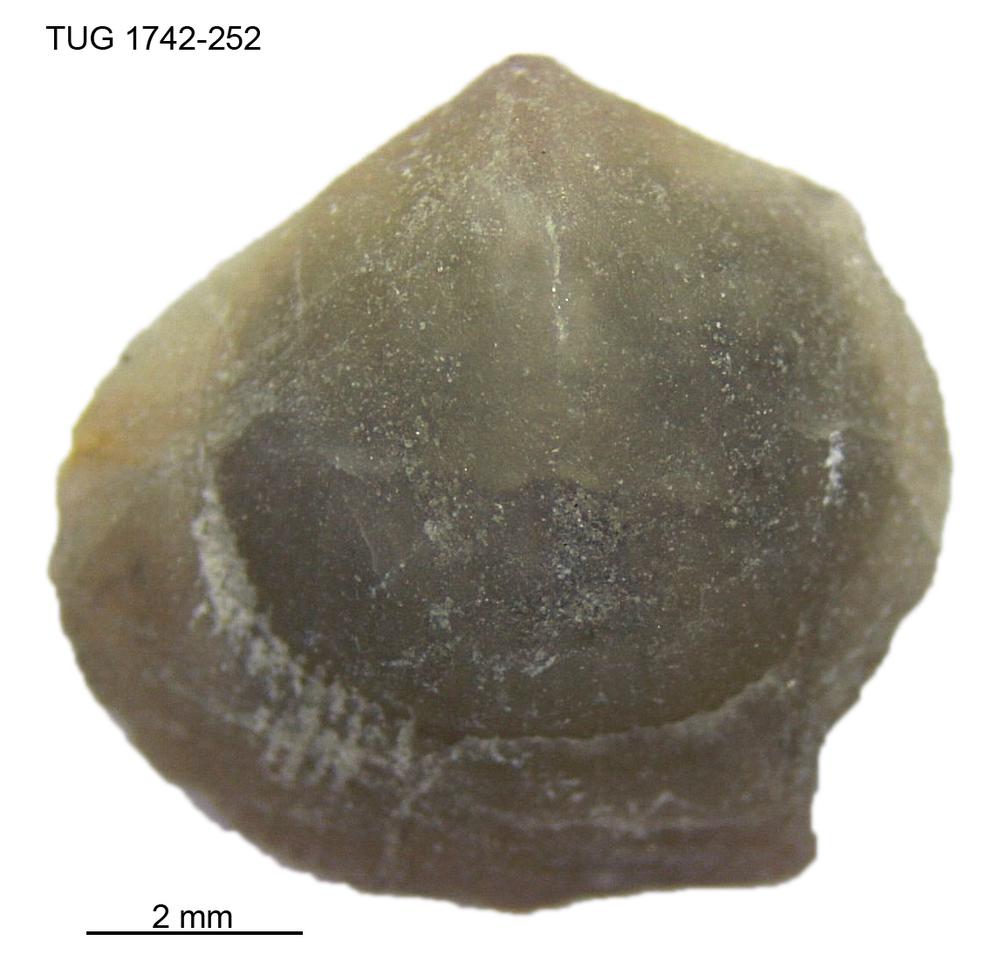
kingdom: Animalia
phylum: Brachiopoda
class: Rhynchonellata
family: Anazygidae
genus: Pentlandella
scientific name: Pentlandella
